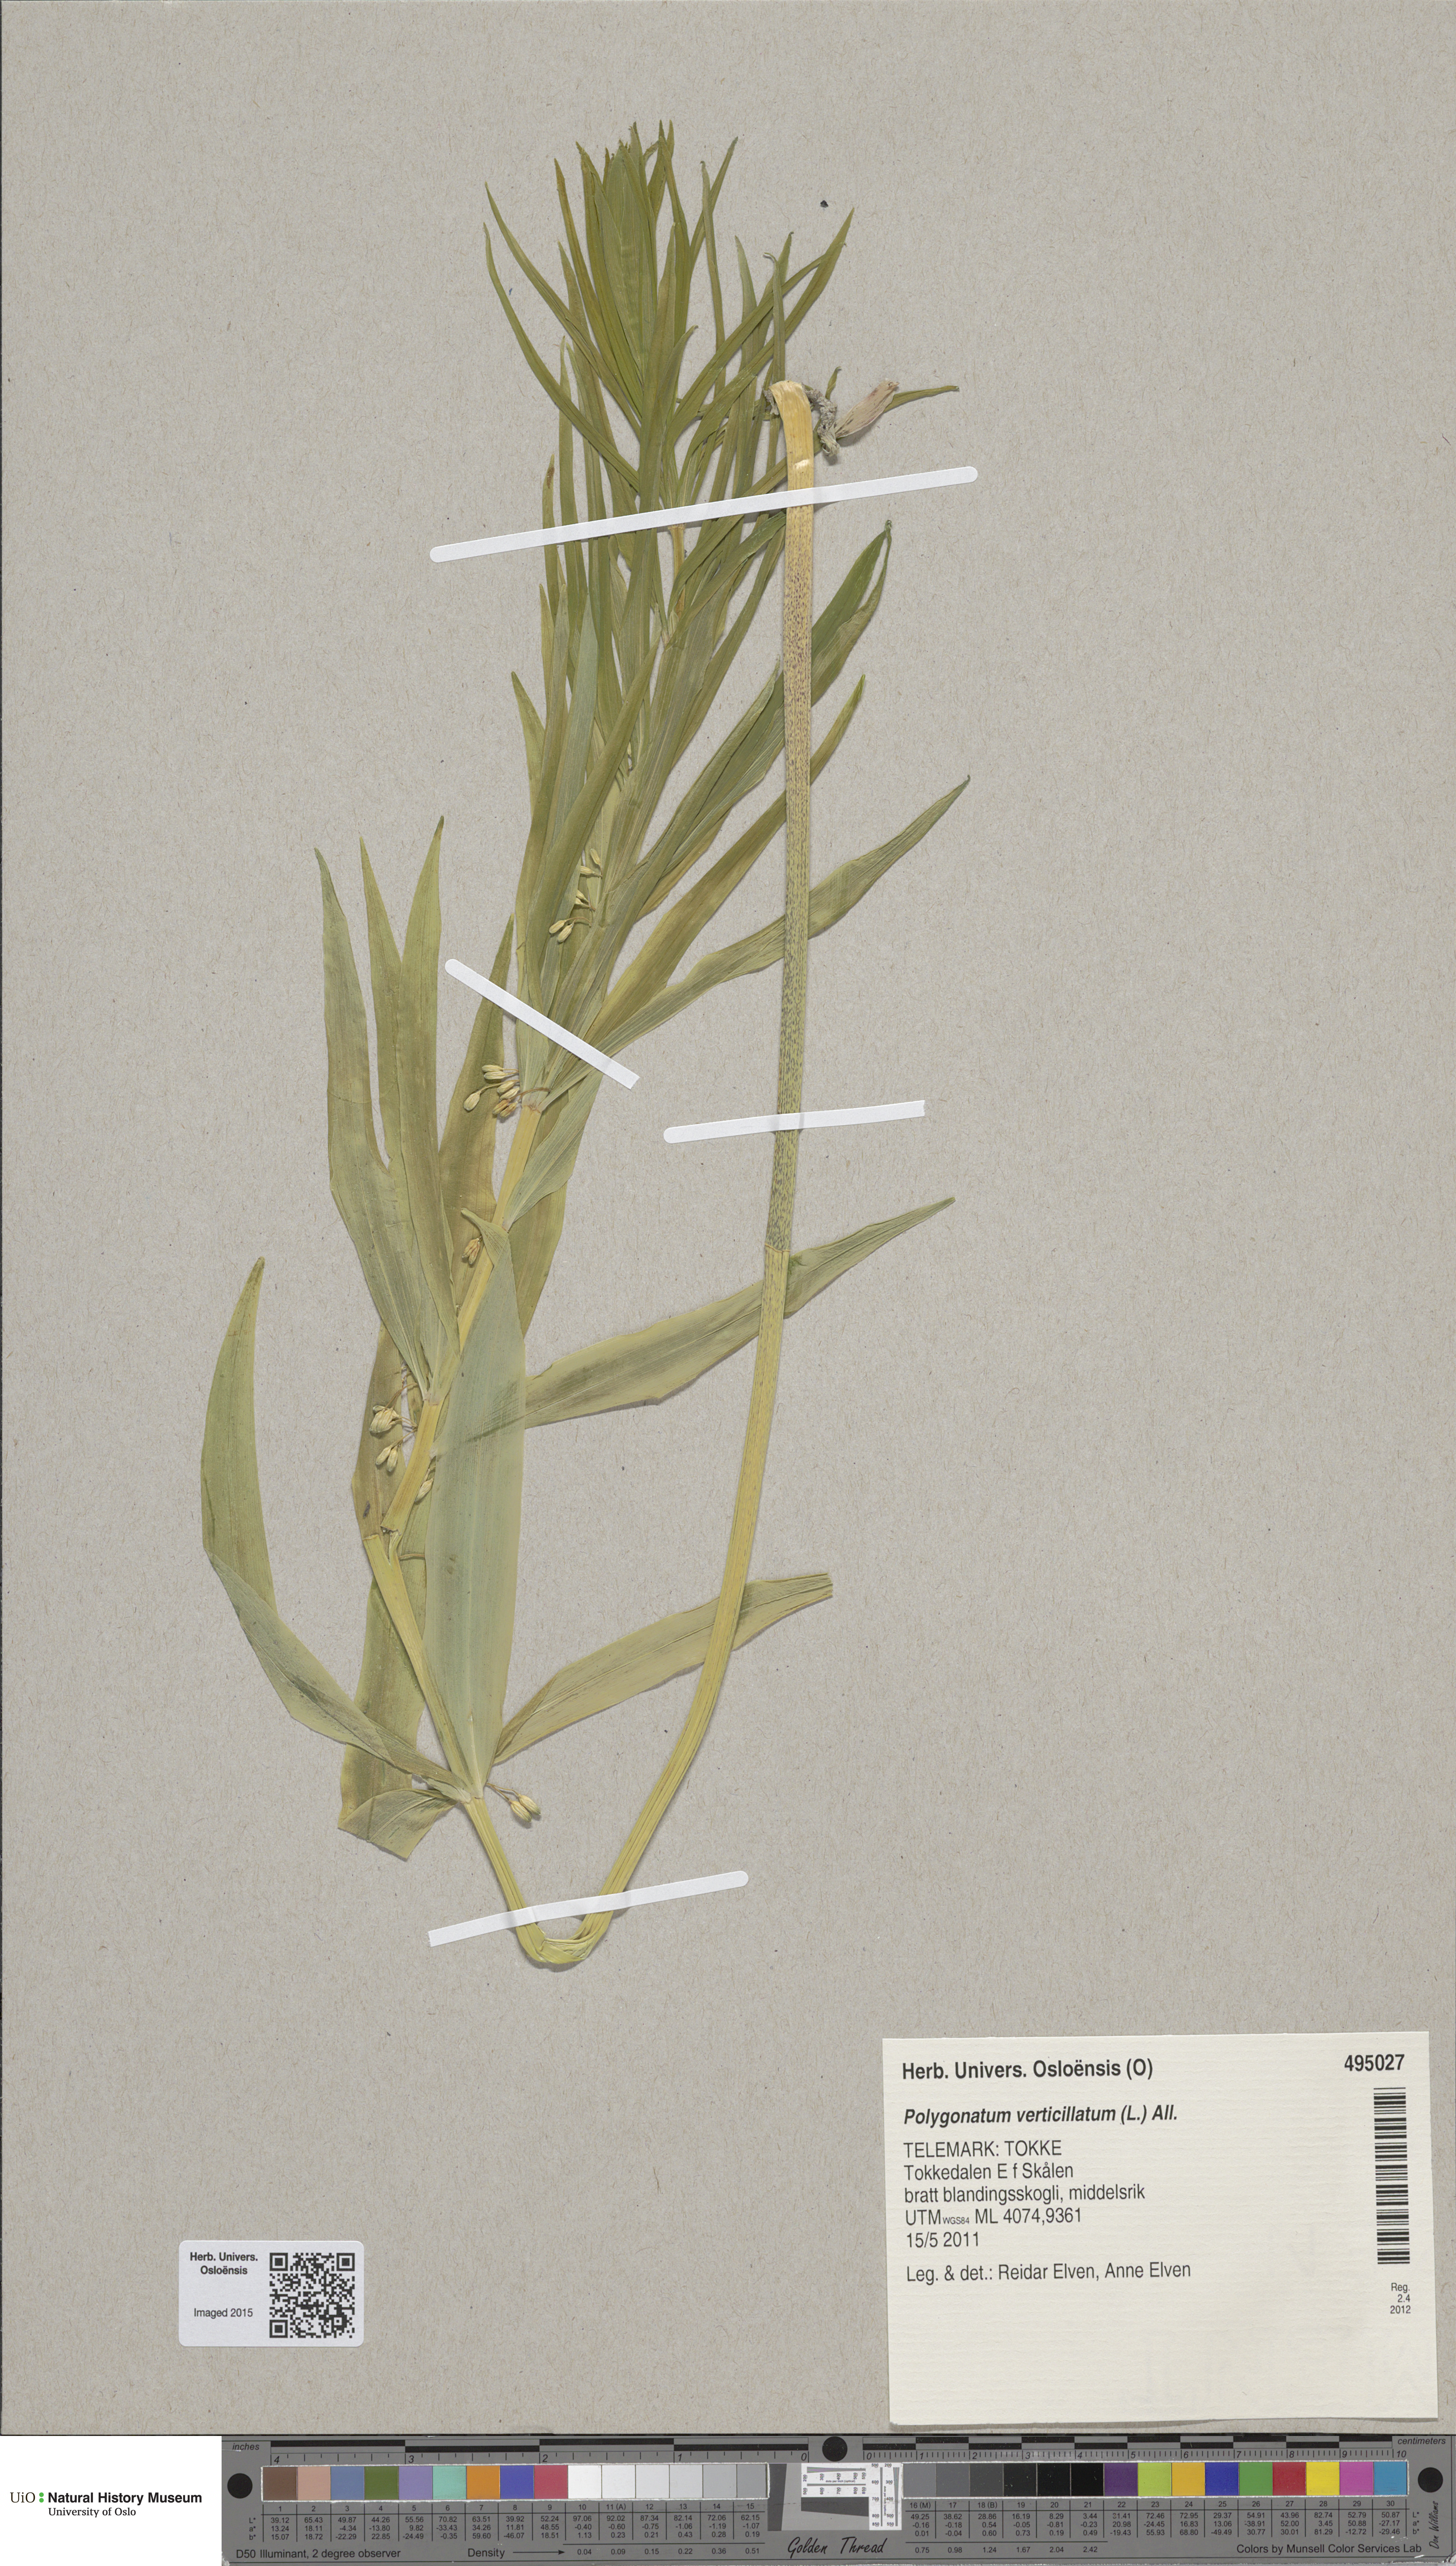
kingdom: Plantae
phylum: Tracheophyta
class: Liliopsida
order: Asparagales
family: Asparagaceae
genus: Polygonatum
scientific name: Polygonatum verticillatum
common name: Whorled solomon's-seal
